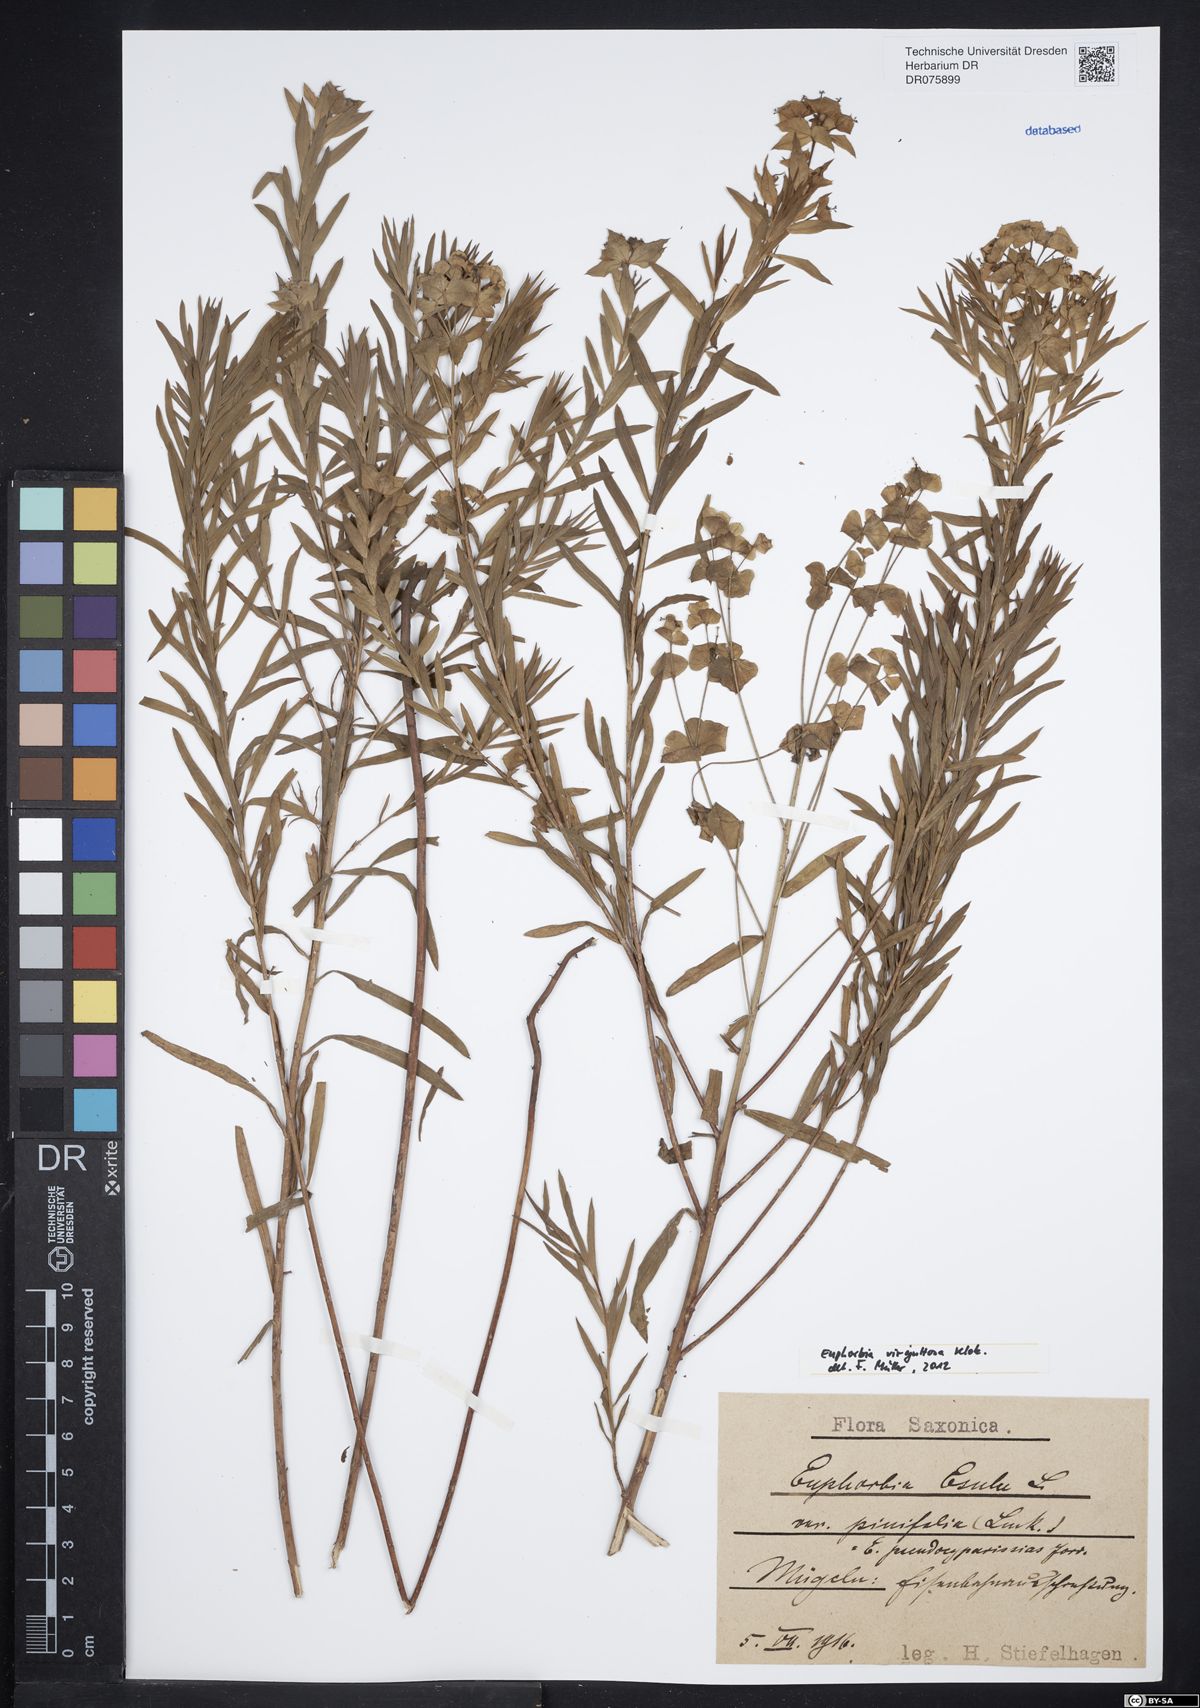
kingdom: Plantae
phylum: Tracheophyta
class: Magnoliopsida
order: Malpighiales
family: Euphorbiaceae
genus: Euphorbia
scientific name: Euphorbia saratoi
